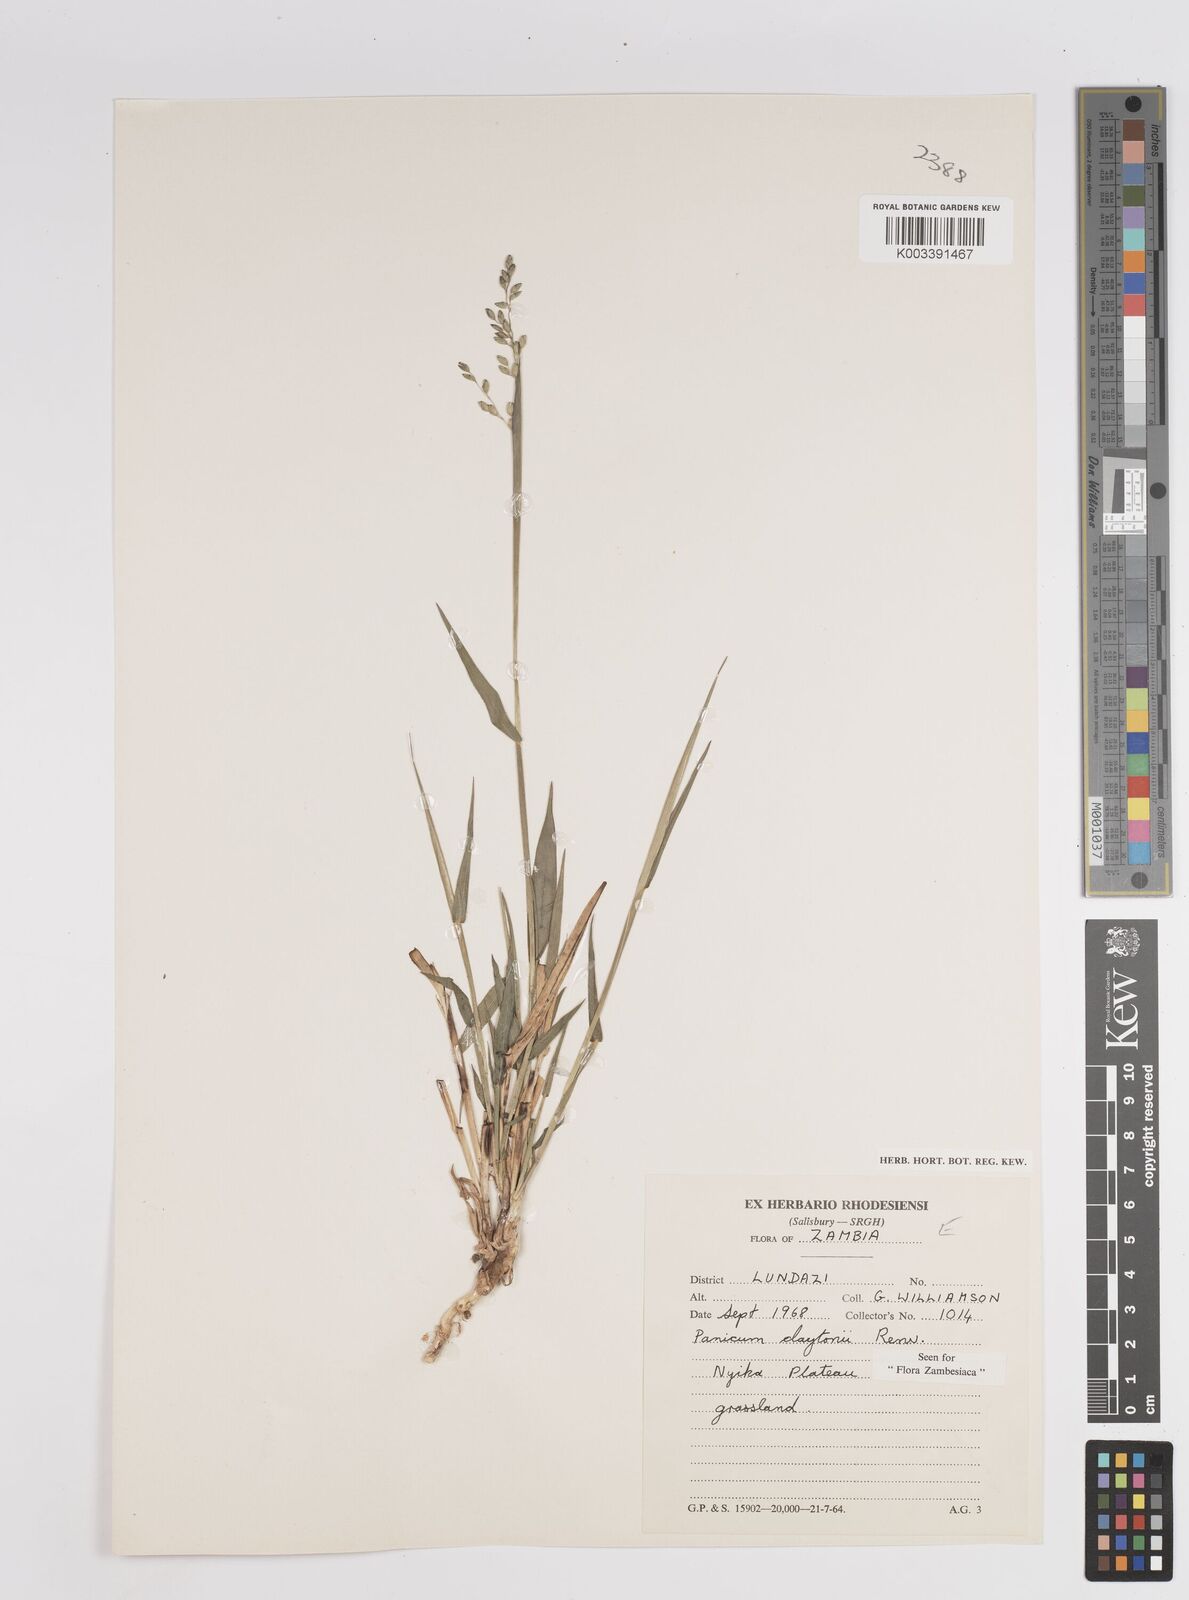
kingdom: Plantae
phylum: Tracheophyta
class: Liliopsida
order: Poales
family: Poaceae
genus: Adenochloa
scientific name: Adenochloa claytonii
